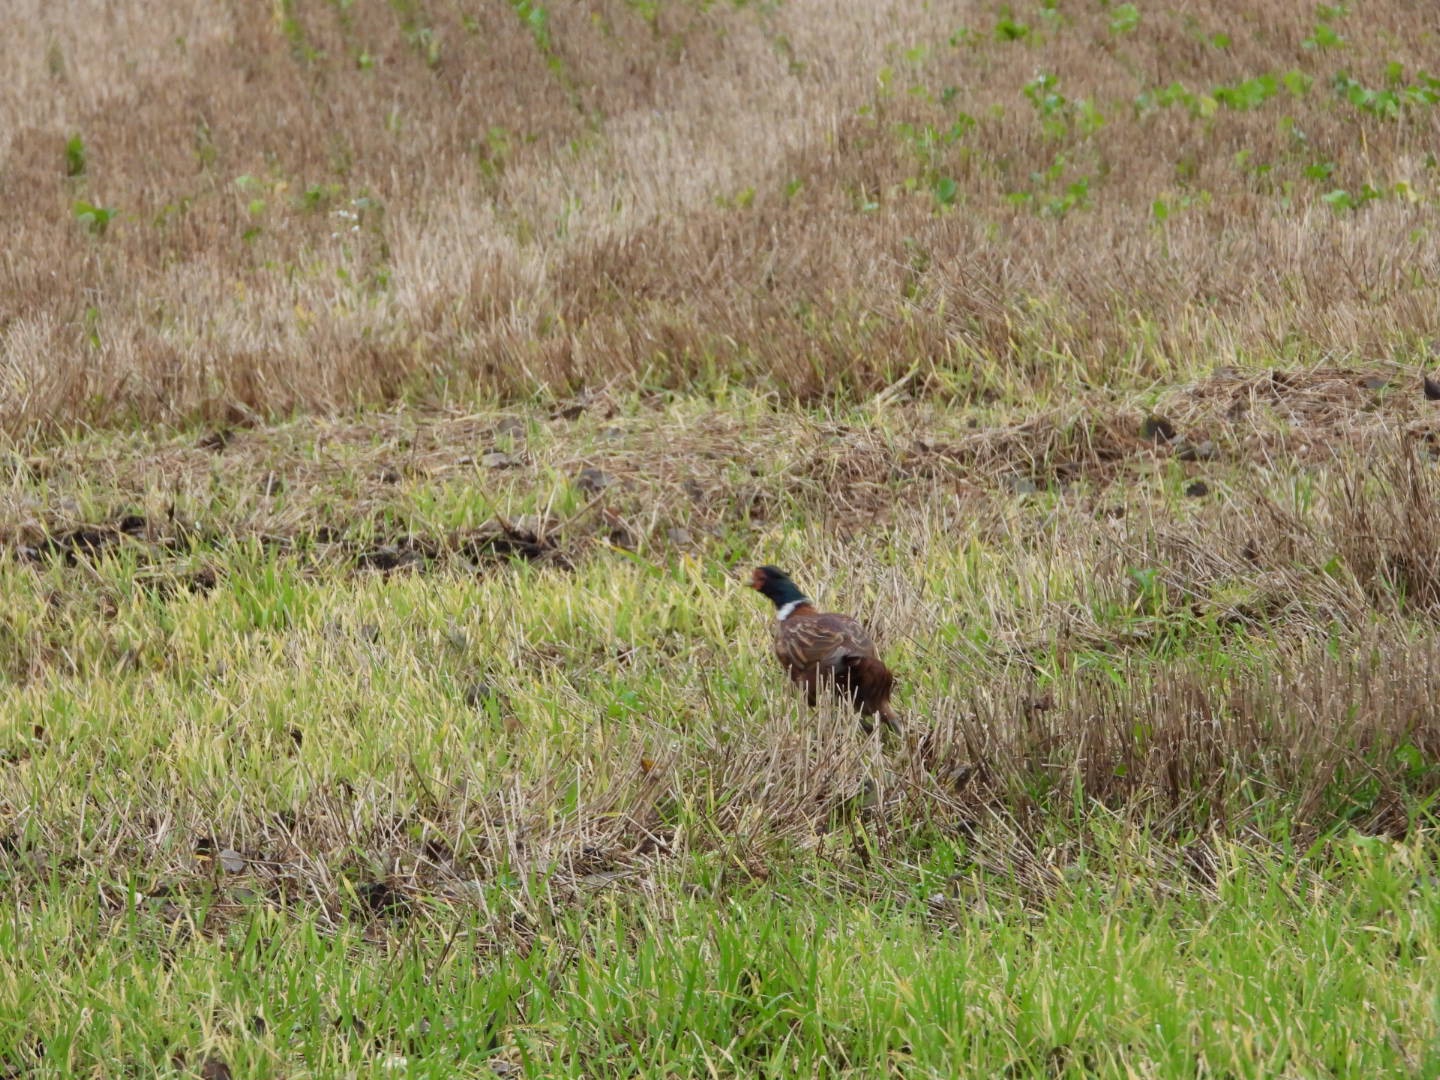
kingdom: Animalia
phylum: Chordata
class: Aves
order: Galliformes
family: Phasianidae
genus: Phasianus
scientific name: Phasianus colchicus
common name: Fasan
